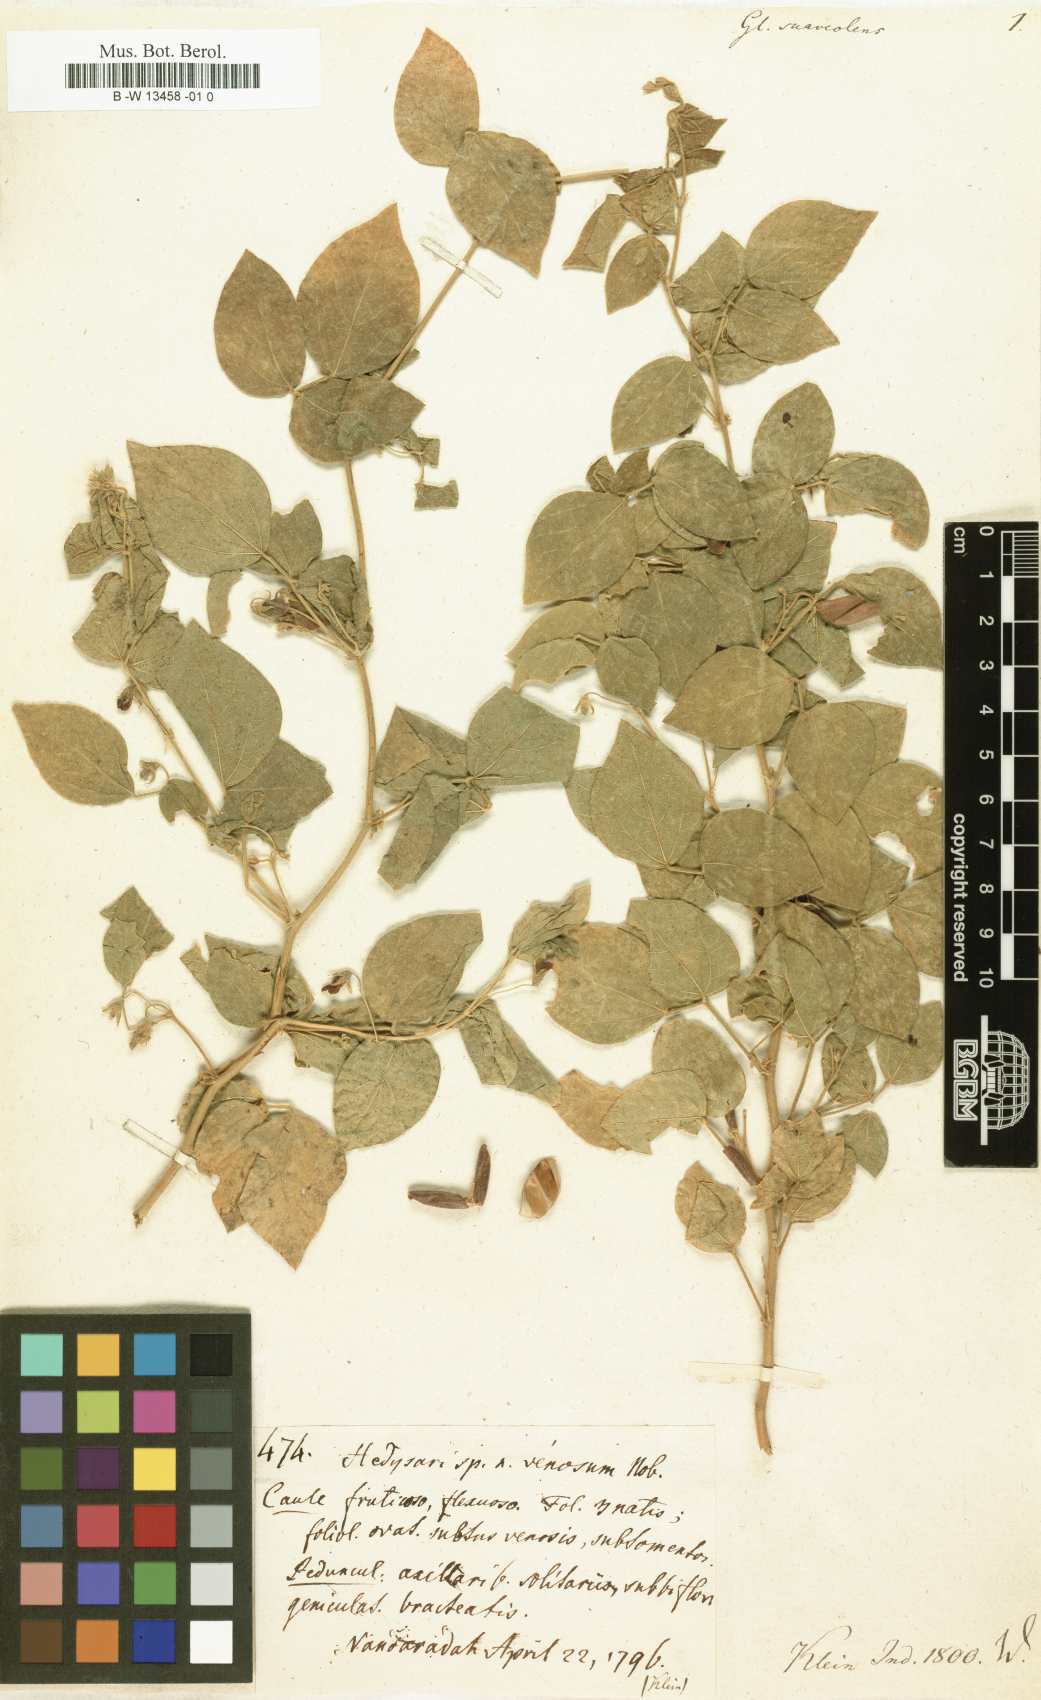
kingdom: Plantae
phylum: Tracheophyta
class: Magnoliopsida
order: Fabales
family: Fabaceae
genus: Rhynchosia
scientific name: Rhynchosia suaveolens
